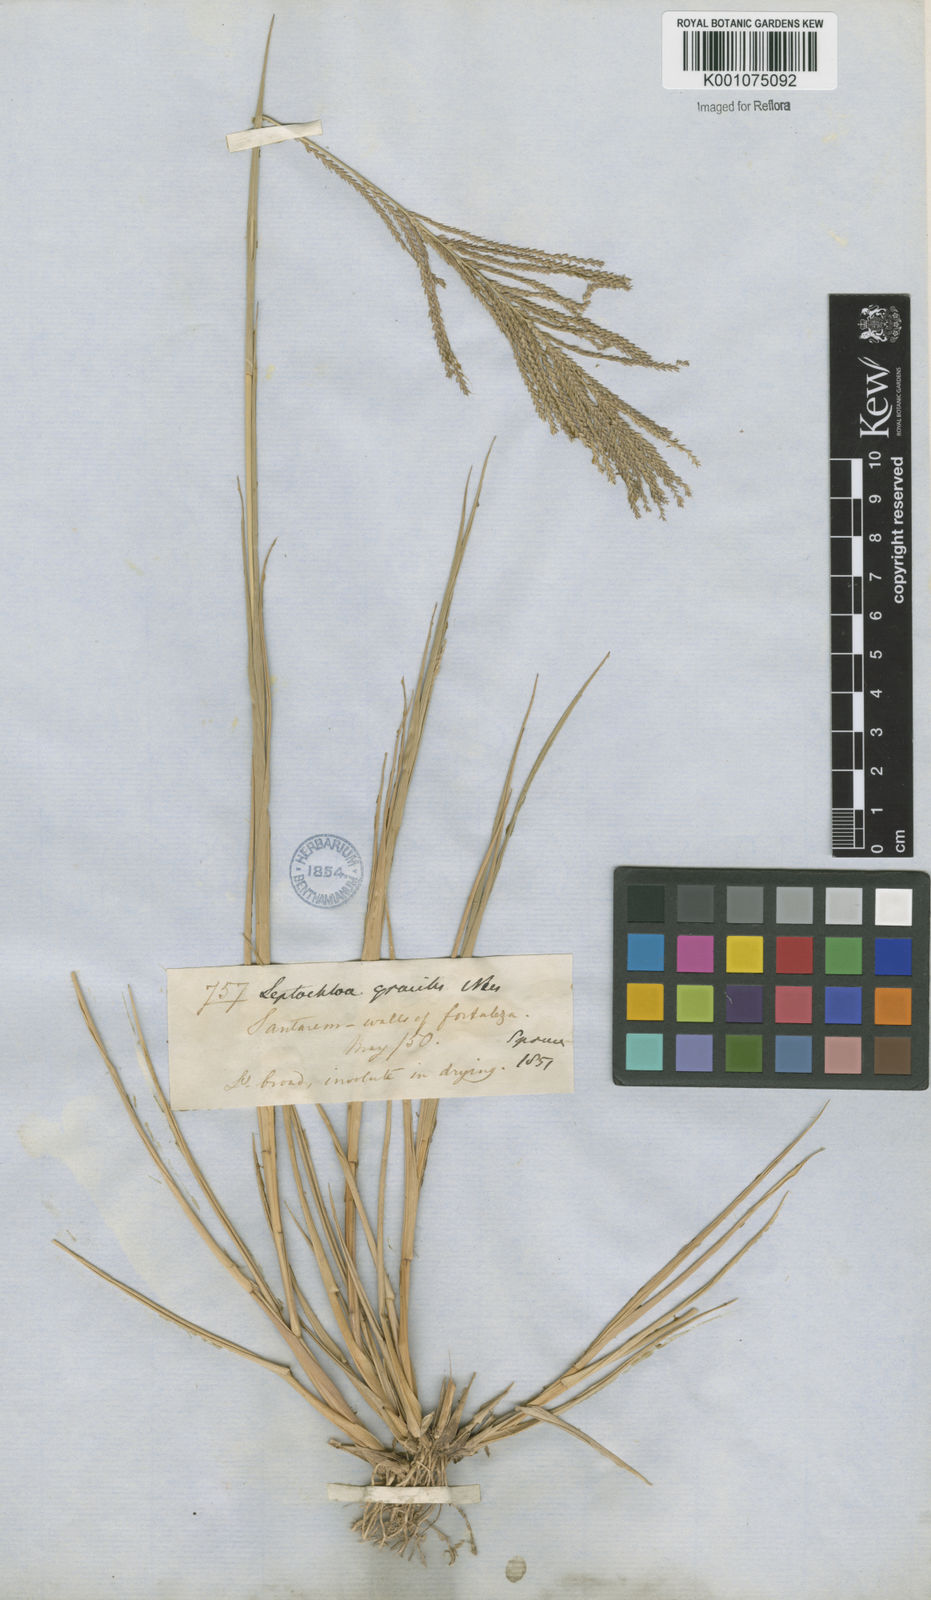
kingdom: Plantae
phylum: Tracheophyta
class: Liliopsida
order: Poales
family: Poaceae
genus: Leptochloa
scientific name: Leptochloa virgata
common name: Tropical sprangletop
